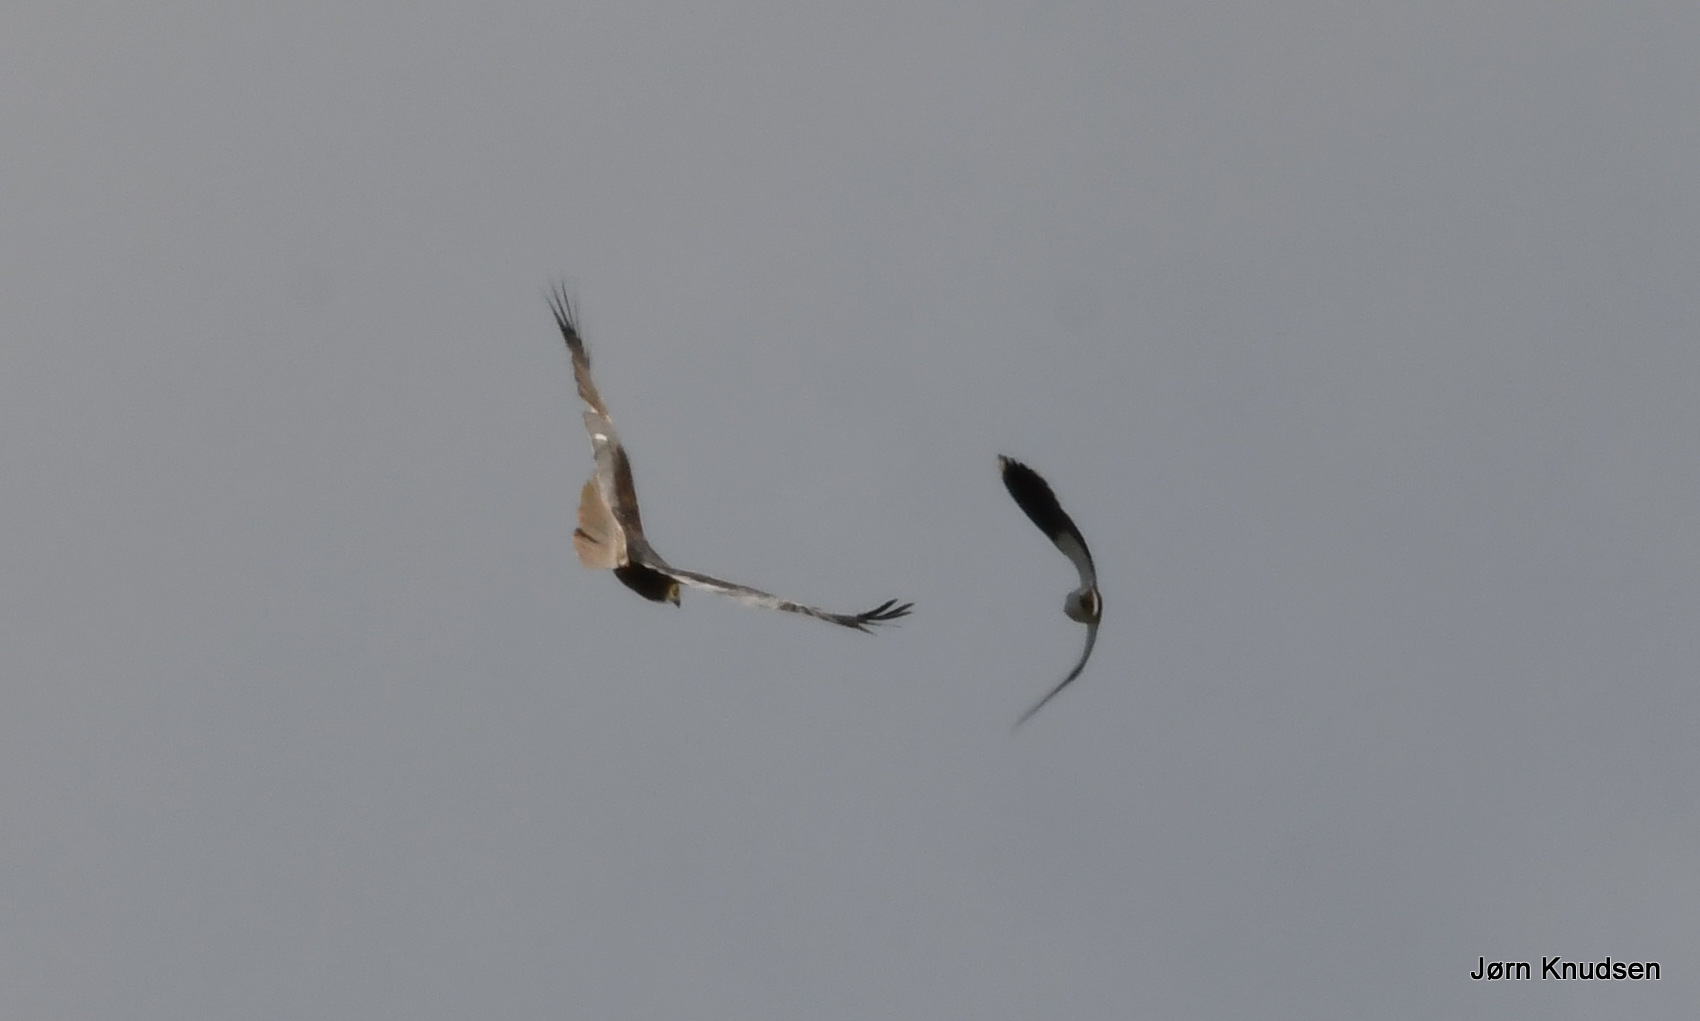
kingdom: Animalia
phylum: Chordata
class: Aves
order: Accipitriformes
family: Accipitridae
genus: Circus
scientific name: Circus aeruginosus
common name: Rørhøg
